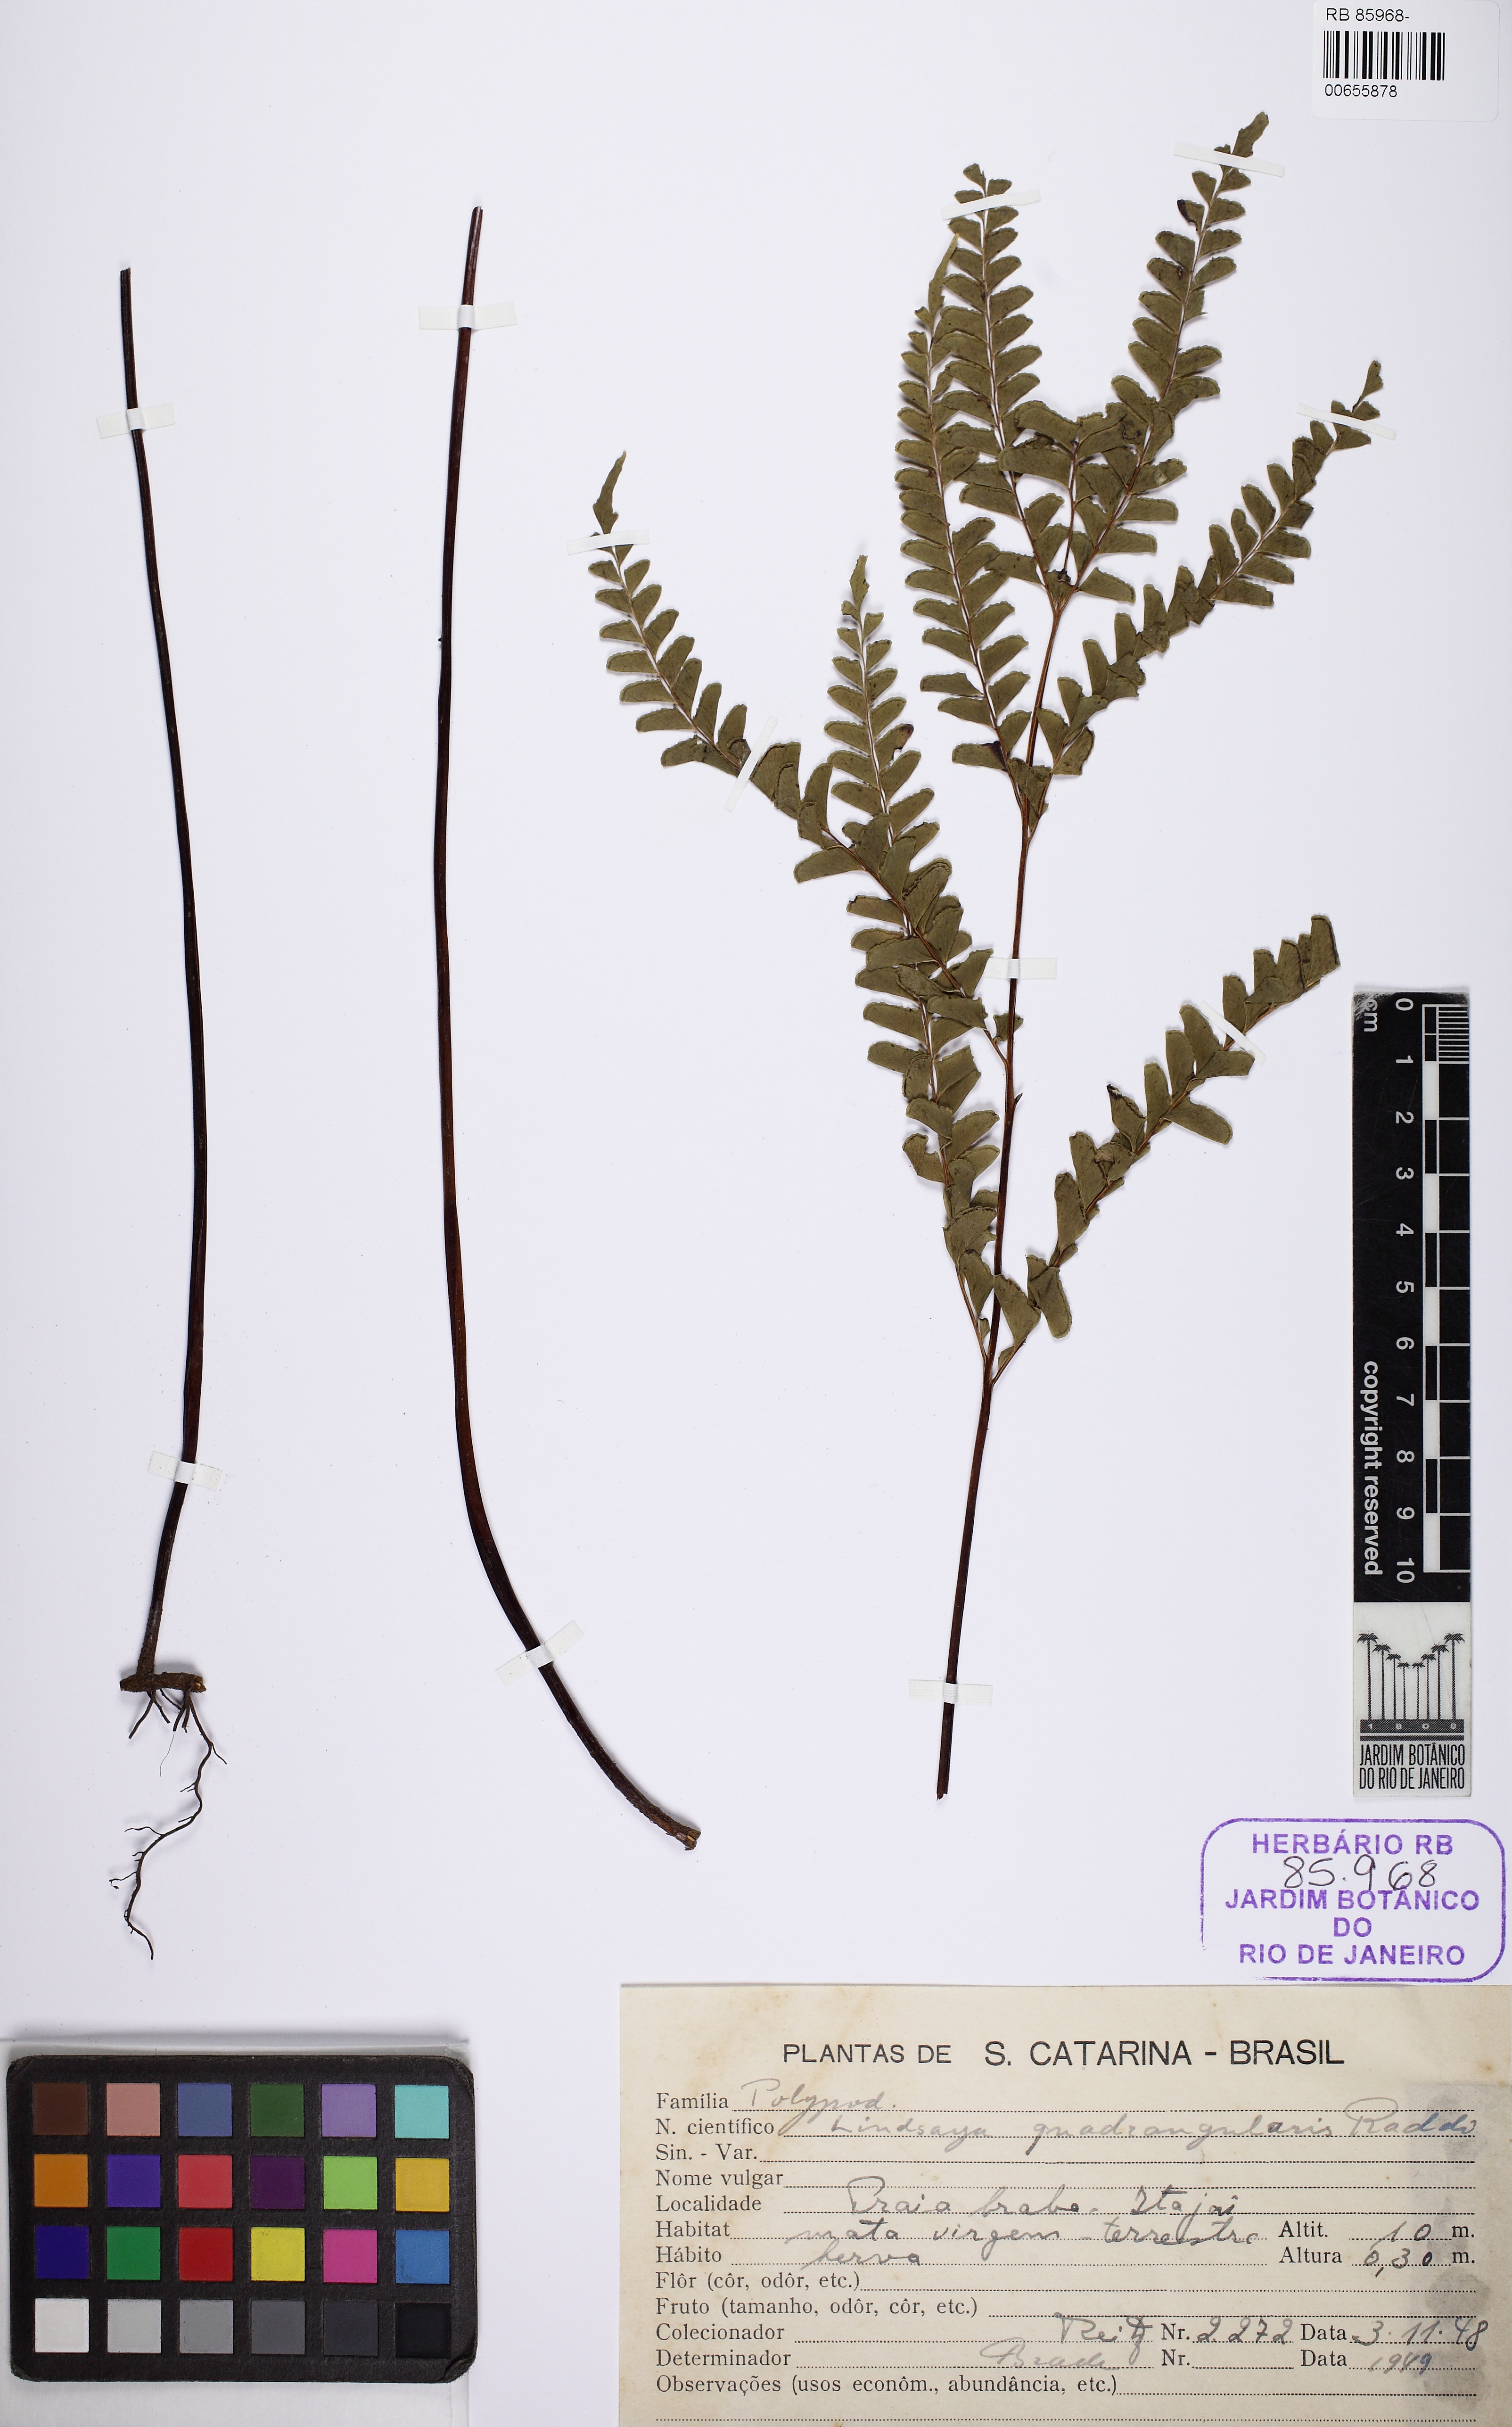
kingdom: Plantae
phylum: Tracheophyta
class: Polypodiopsida
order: Polypodiales
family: Lindsaeaceae
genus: Lindsaea
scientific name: Lindsaea quadrangularis
